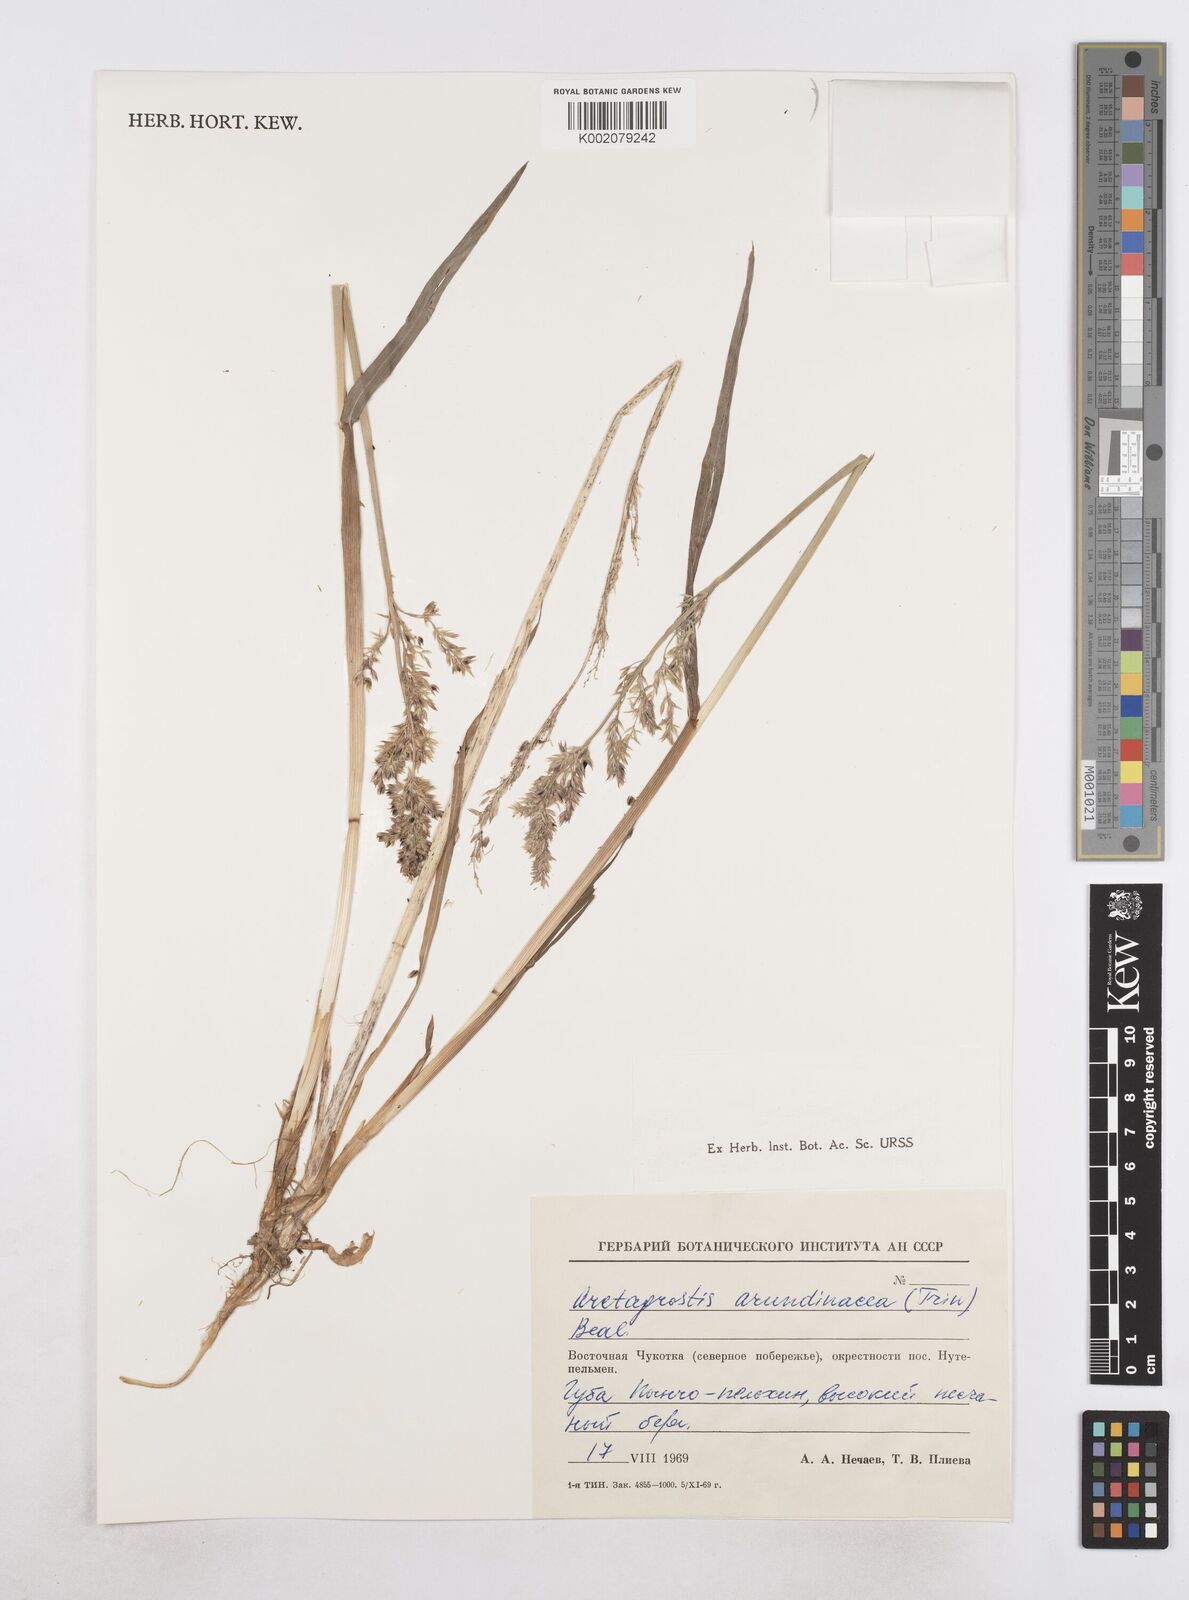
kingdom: Plantae
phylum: Tracheophyta
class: Liliopsida
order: Poales
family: Poaceae
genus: Arctagrostis
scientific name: Arctagrostis arundinacea
